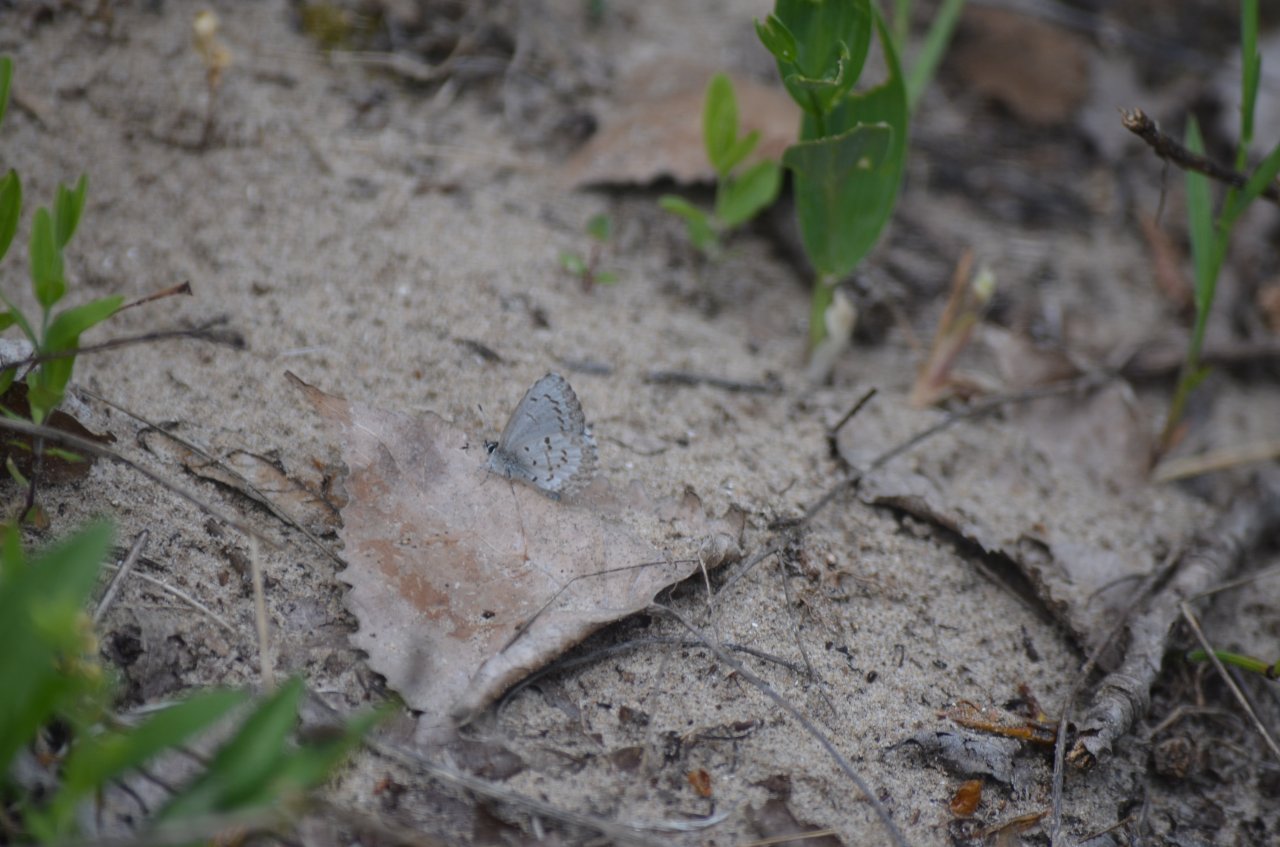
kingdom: Animalia
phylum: Arthropoda
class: Insecta
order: Lepidoptera
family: Lycaenidae
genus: Celastrina
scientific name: Celastrina lucia
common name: Northern Spring Azure
